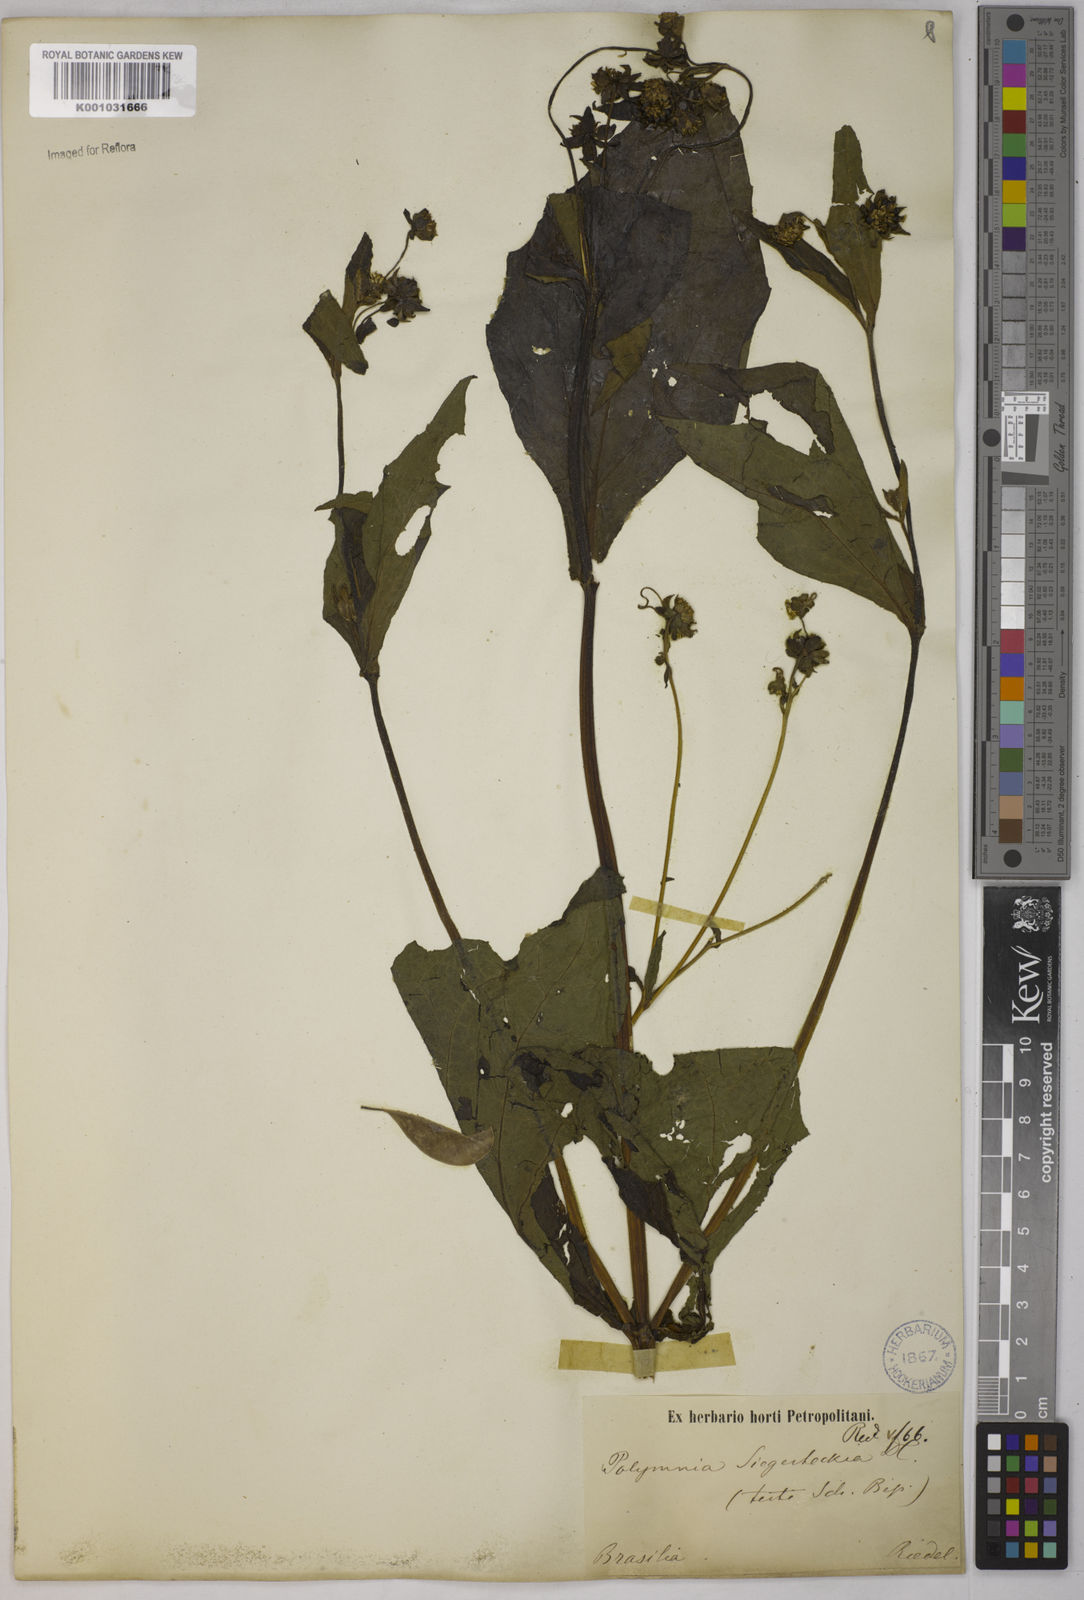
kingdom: Plantae
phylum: Tracheophyta
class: Magnoliopsida
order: Asterales
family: Asteraceae
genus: Smallanthus
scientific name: Smallanthus siegesbeckius
